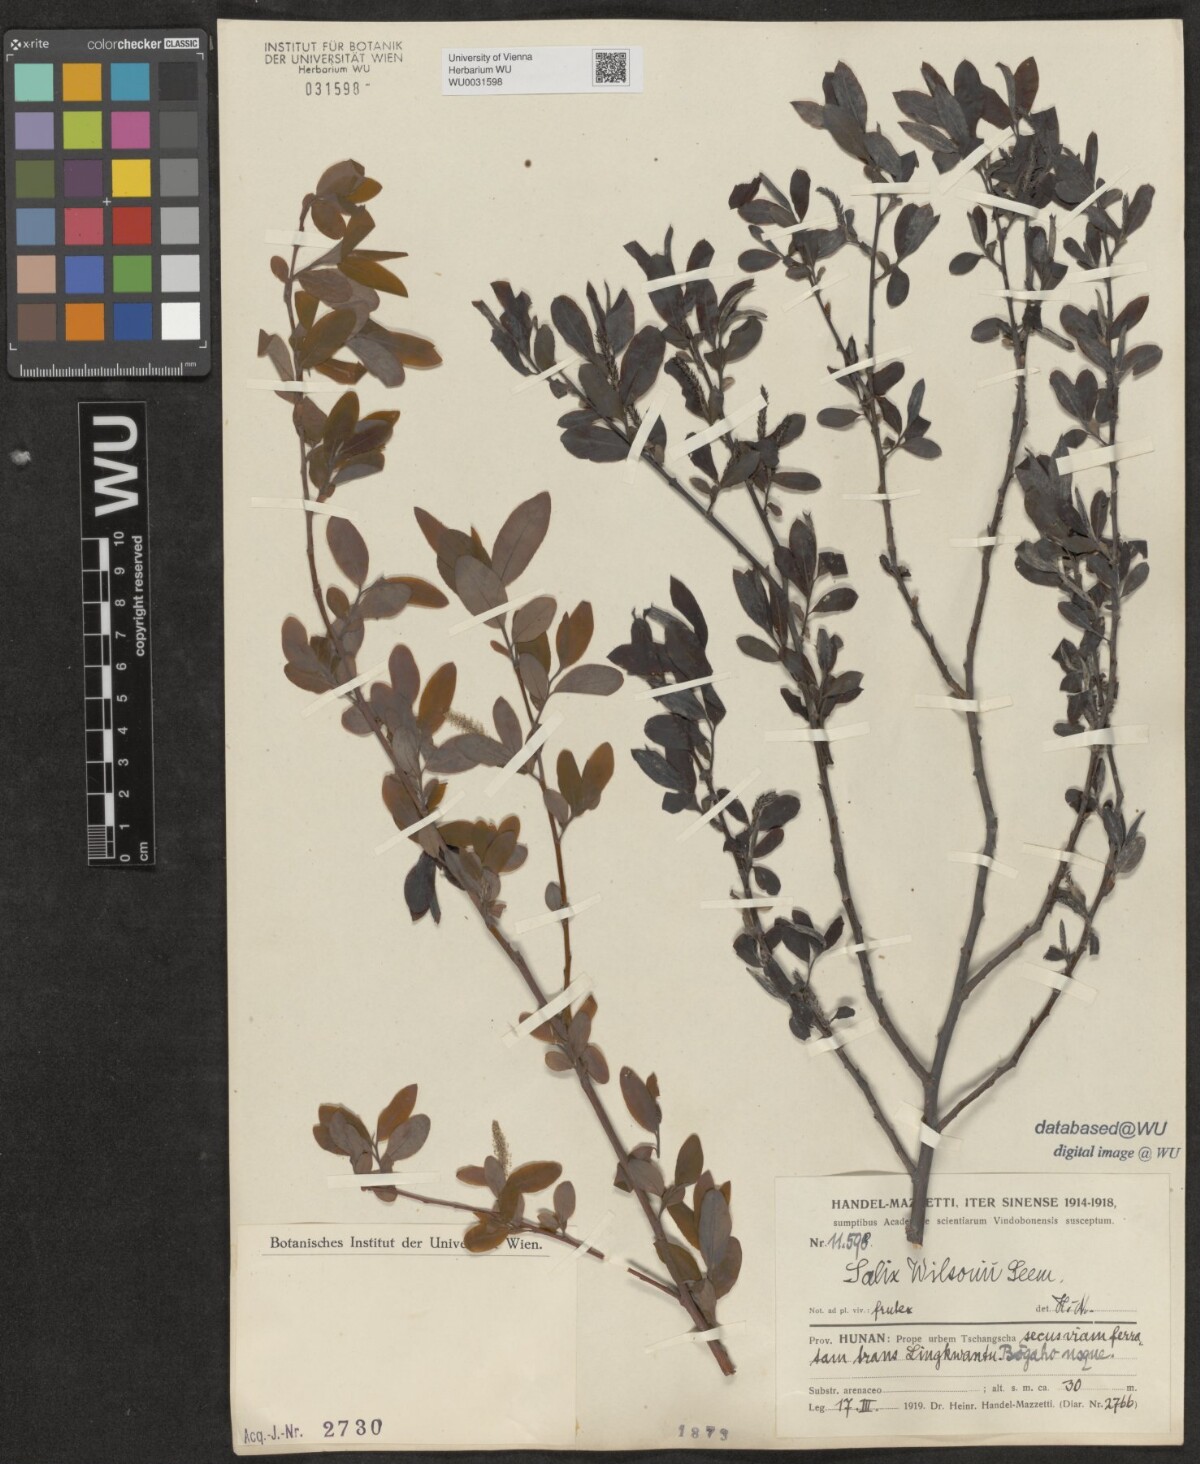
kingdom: Plantae
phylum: Tracheophyta
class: Magnoliopsida
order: Malpighiales
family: Salicaceae
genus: Salix
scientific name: Salix wilsonii
